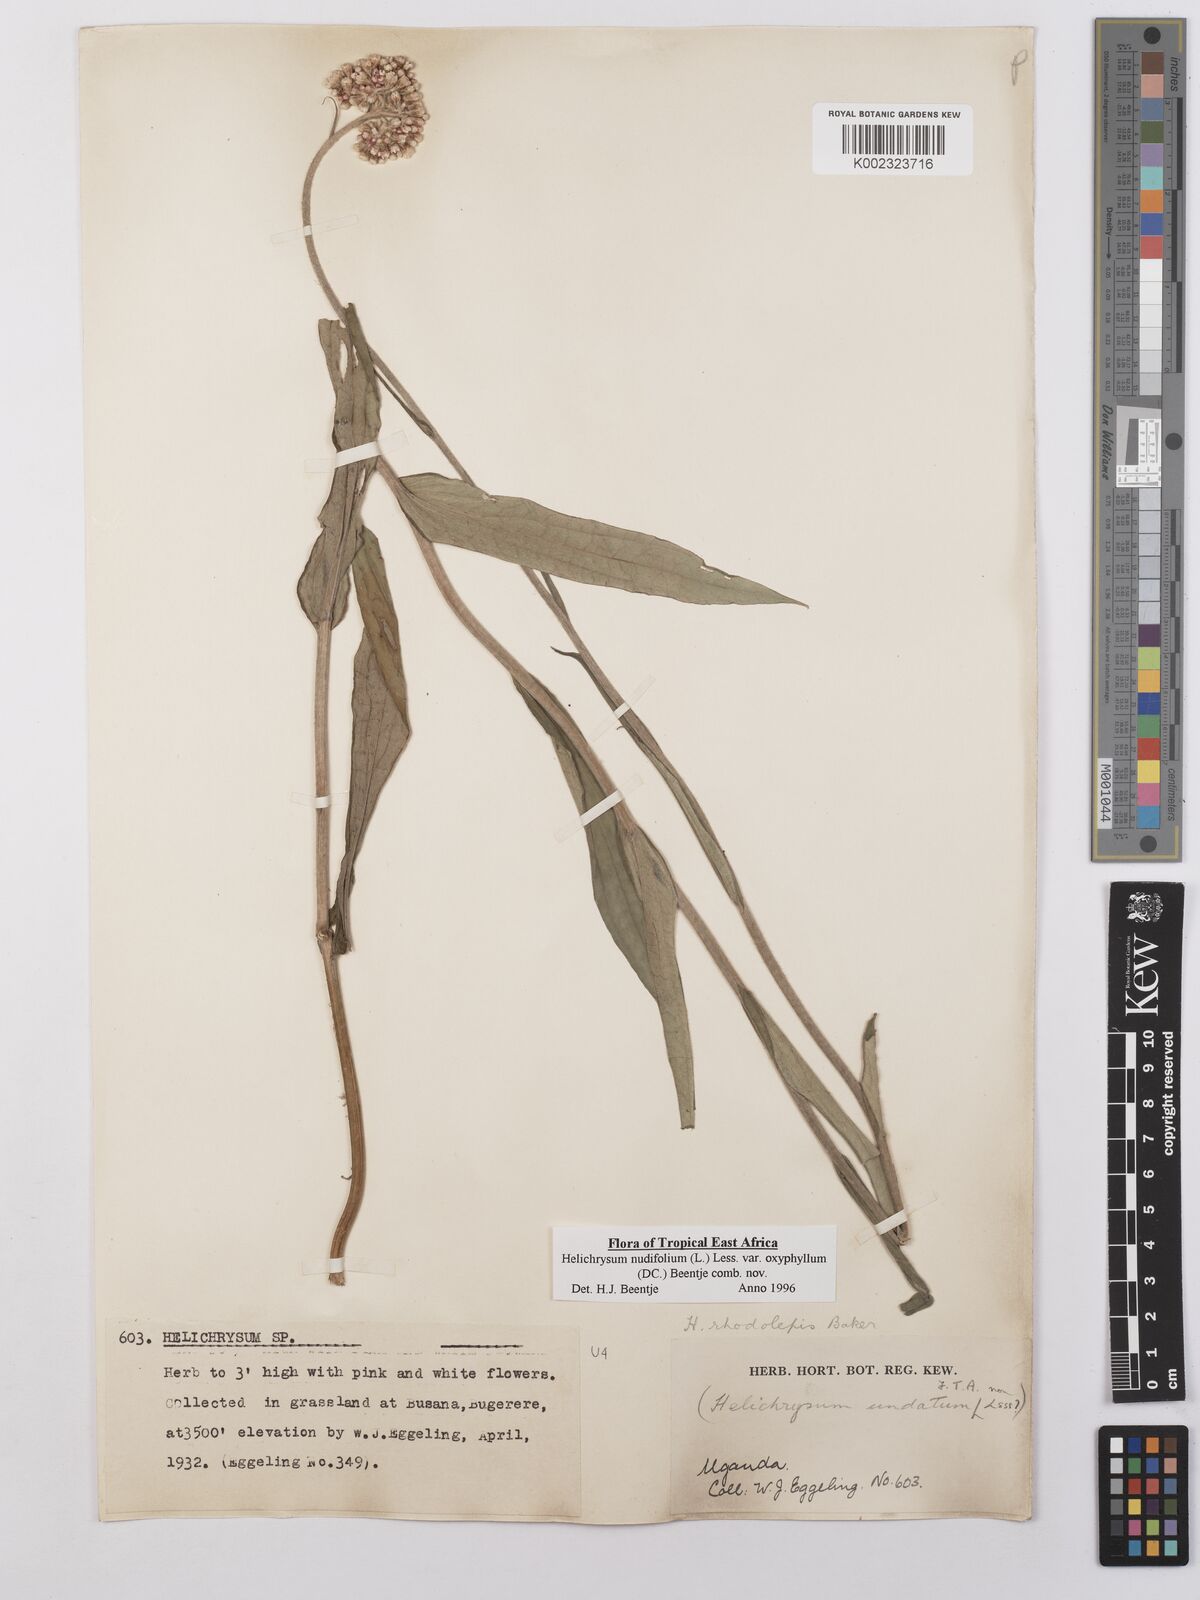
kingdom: Plantae
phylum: Tracheophyta
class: Magnoliopsida
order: Asterales
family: Asteraceae
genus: Helichrysum
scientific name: Helichrysum nudifolium
